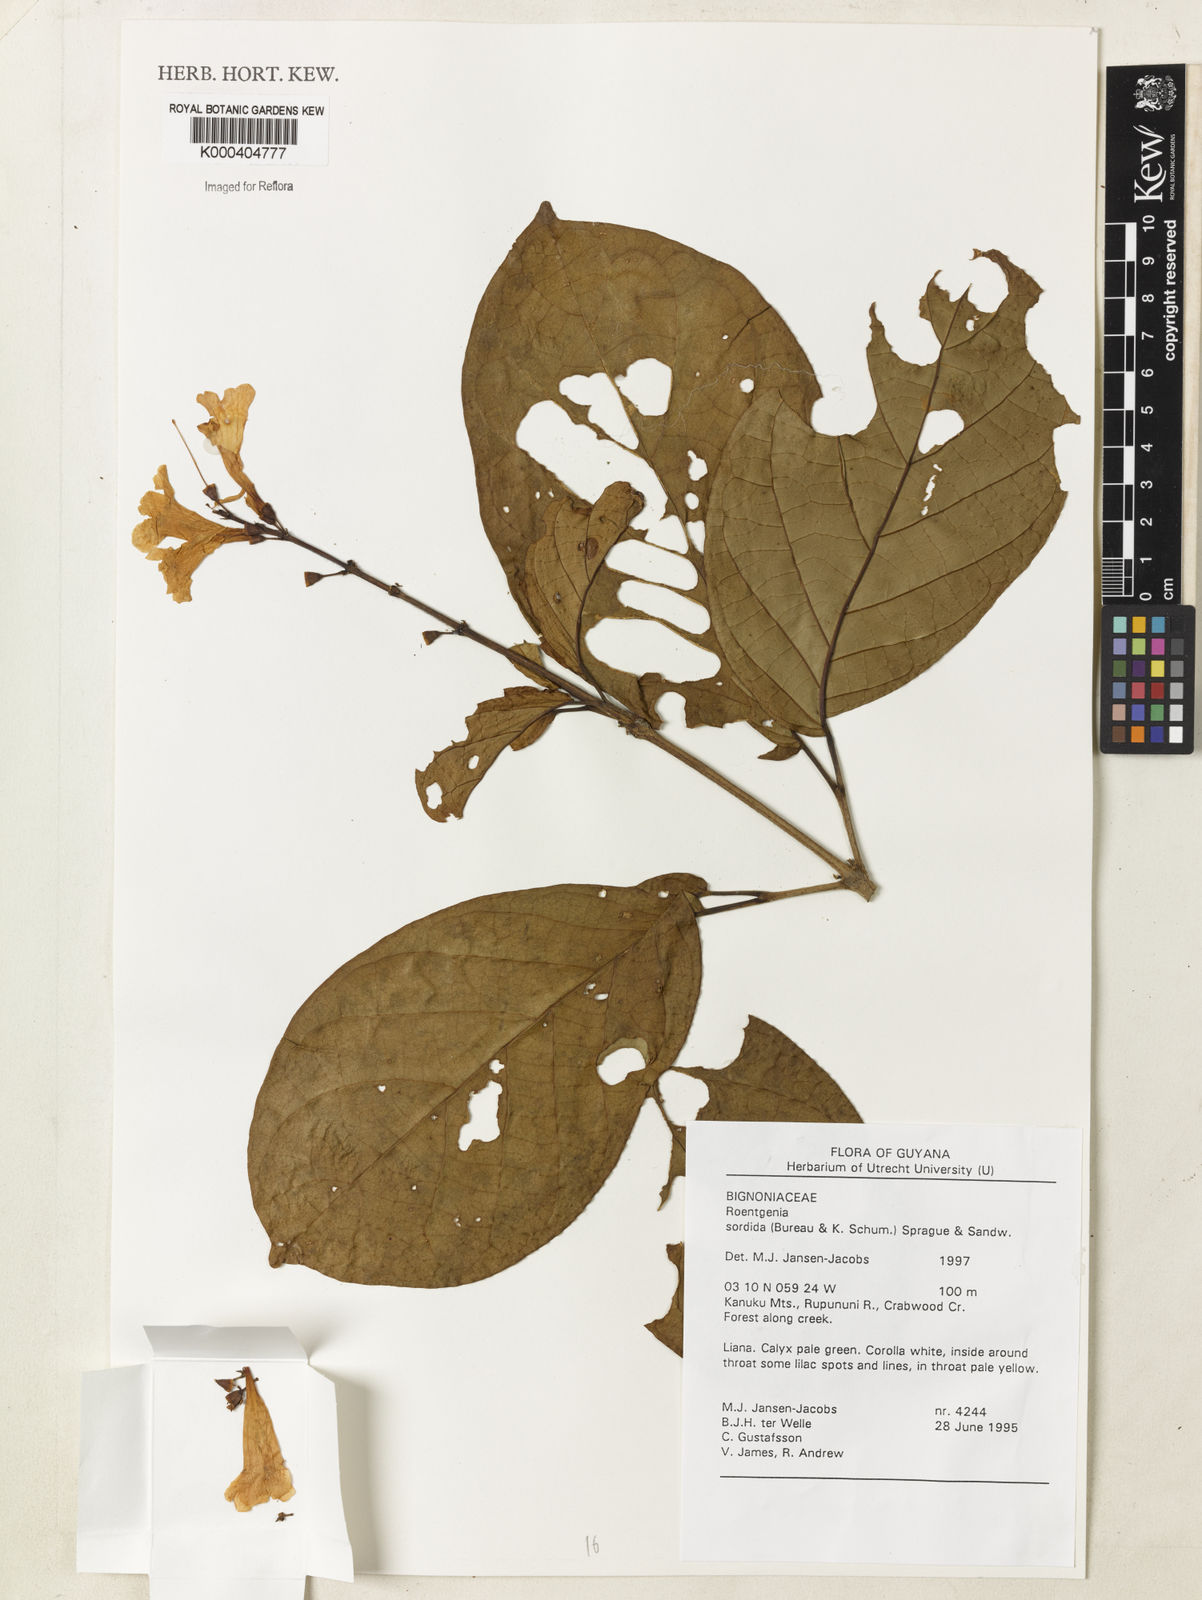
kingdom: Plantae
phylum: Tracheophyta
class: Magnoliopsida
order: Lamiales
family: Bignoniaceae
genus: Bignonia
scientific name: Bignonia sordida
